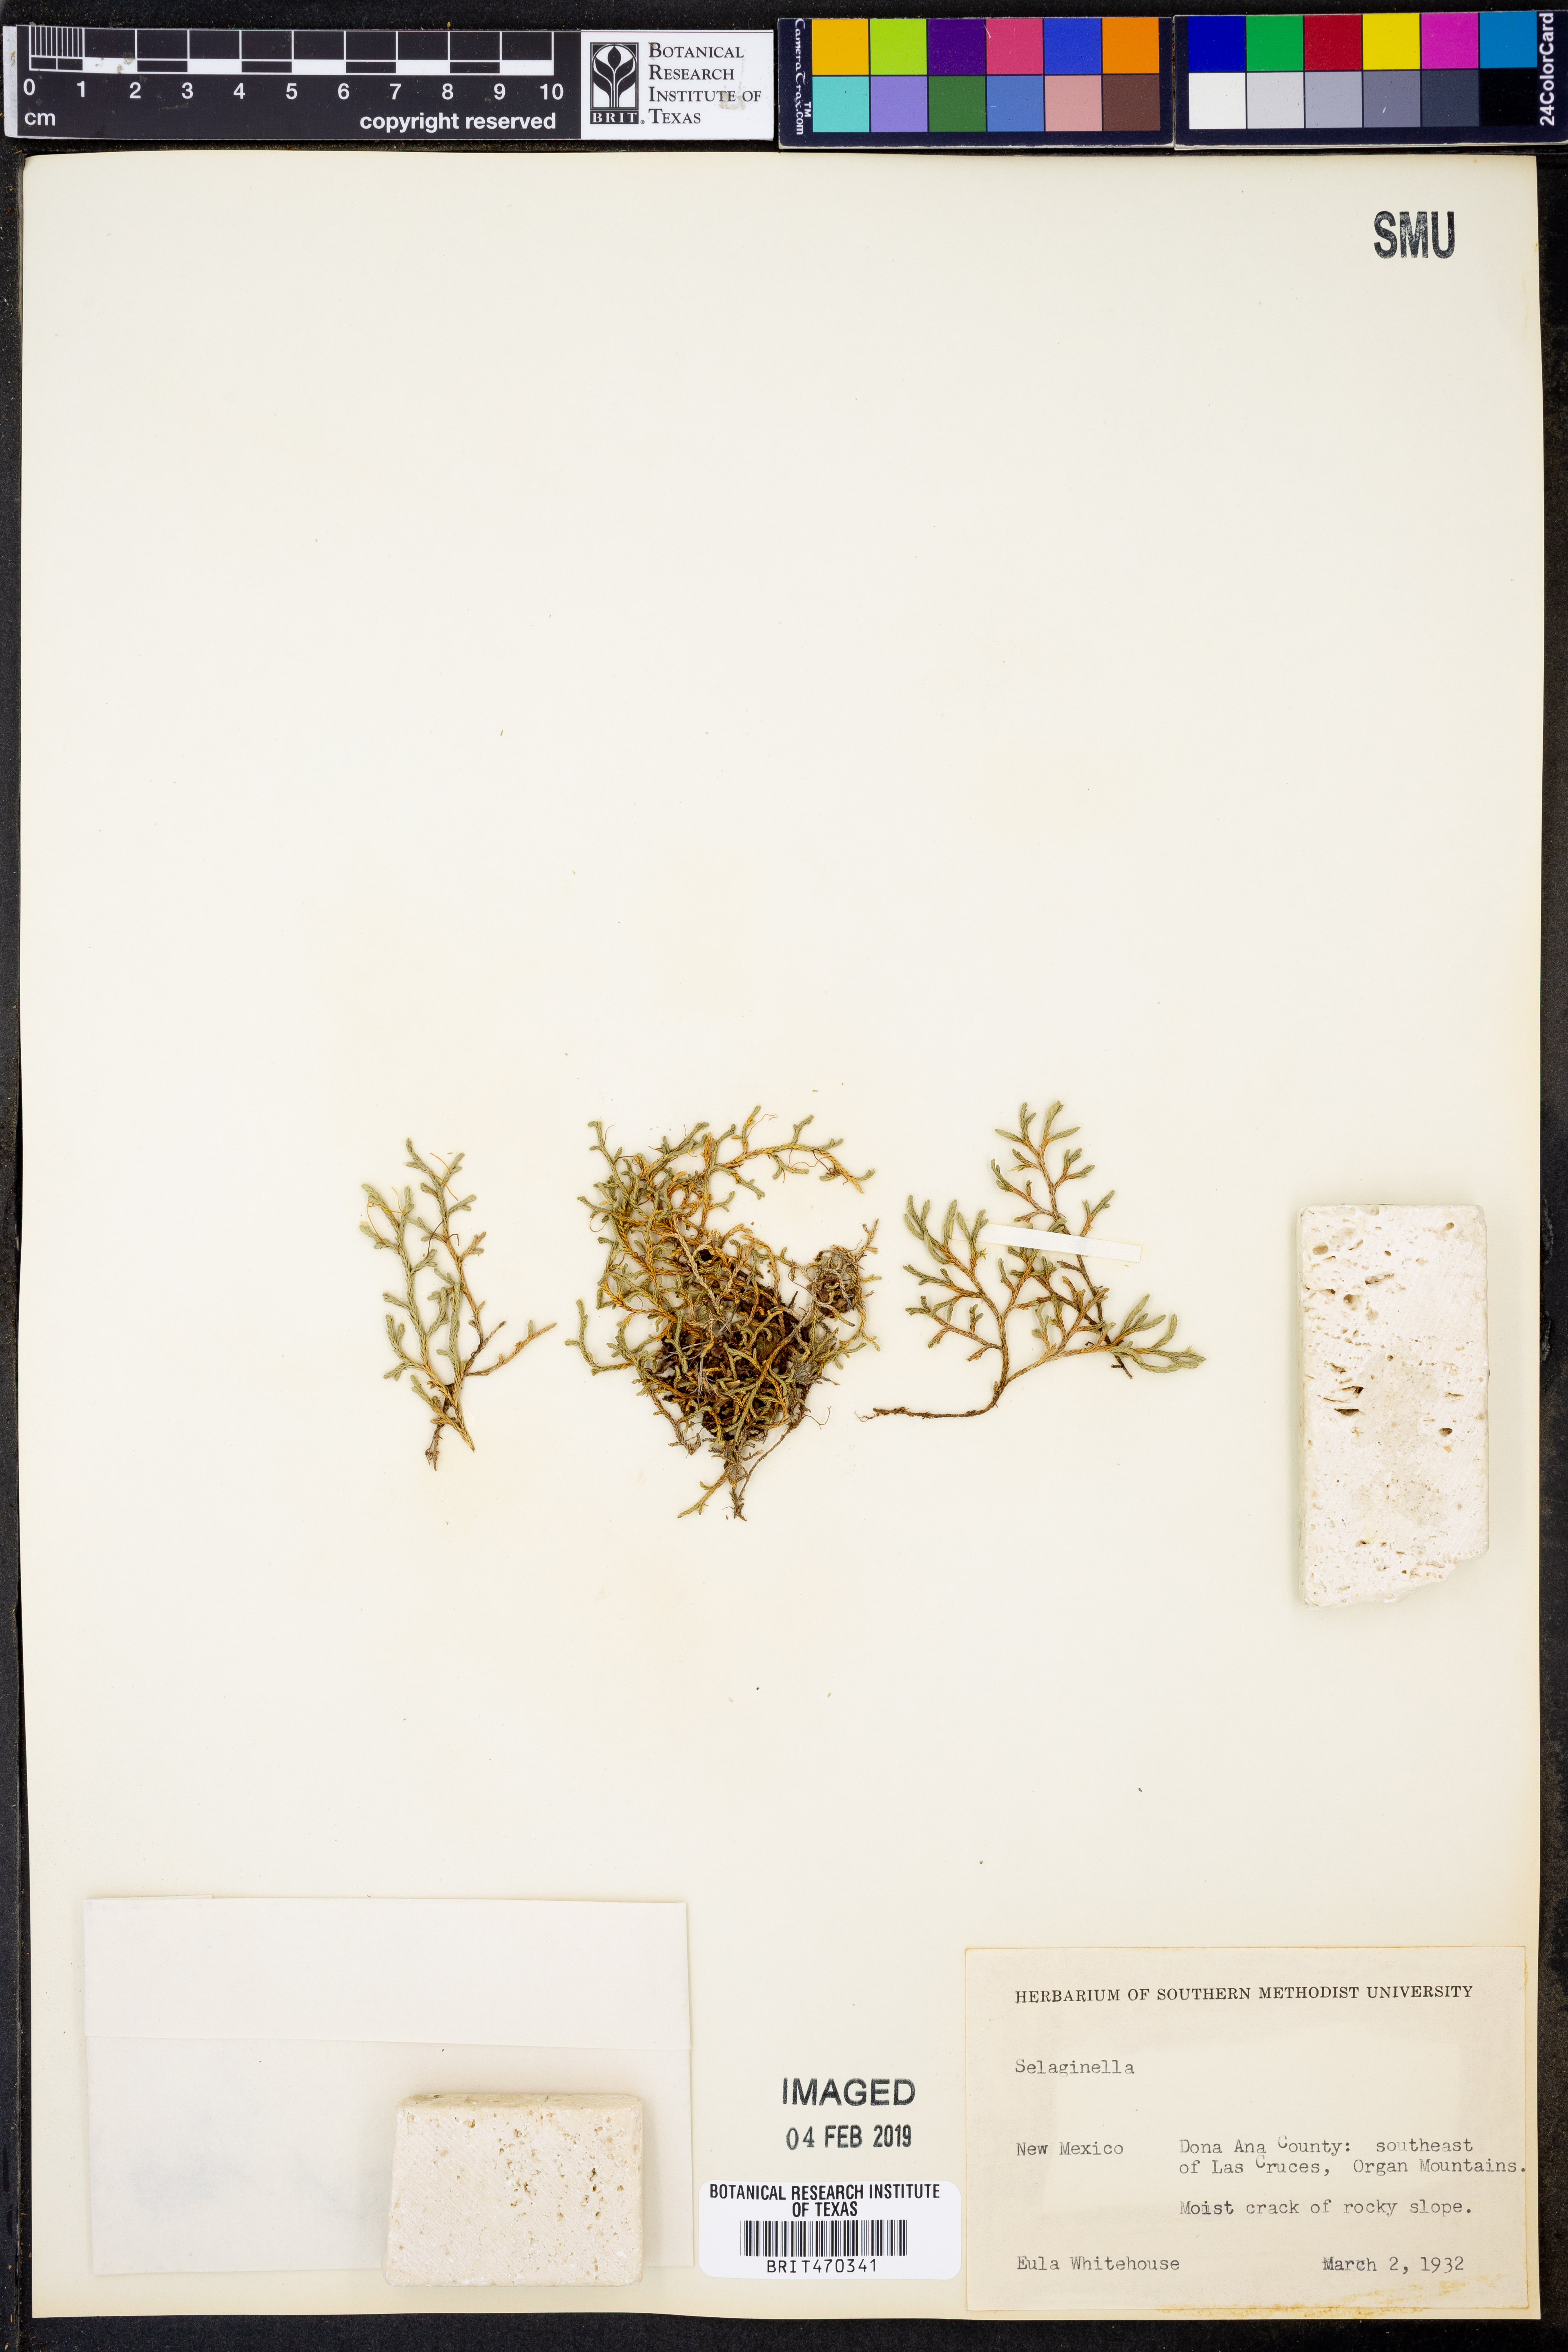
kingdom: Plantae
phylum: Tracheophyta
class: Lycopodiopsida
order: Selaginellales
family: Selaginellaceae
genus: Selaginella
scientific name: Selaginella
